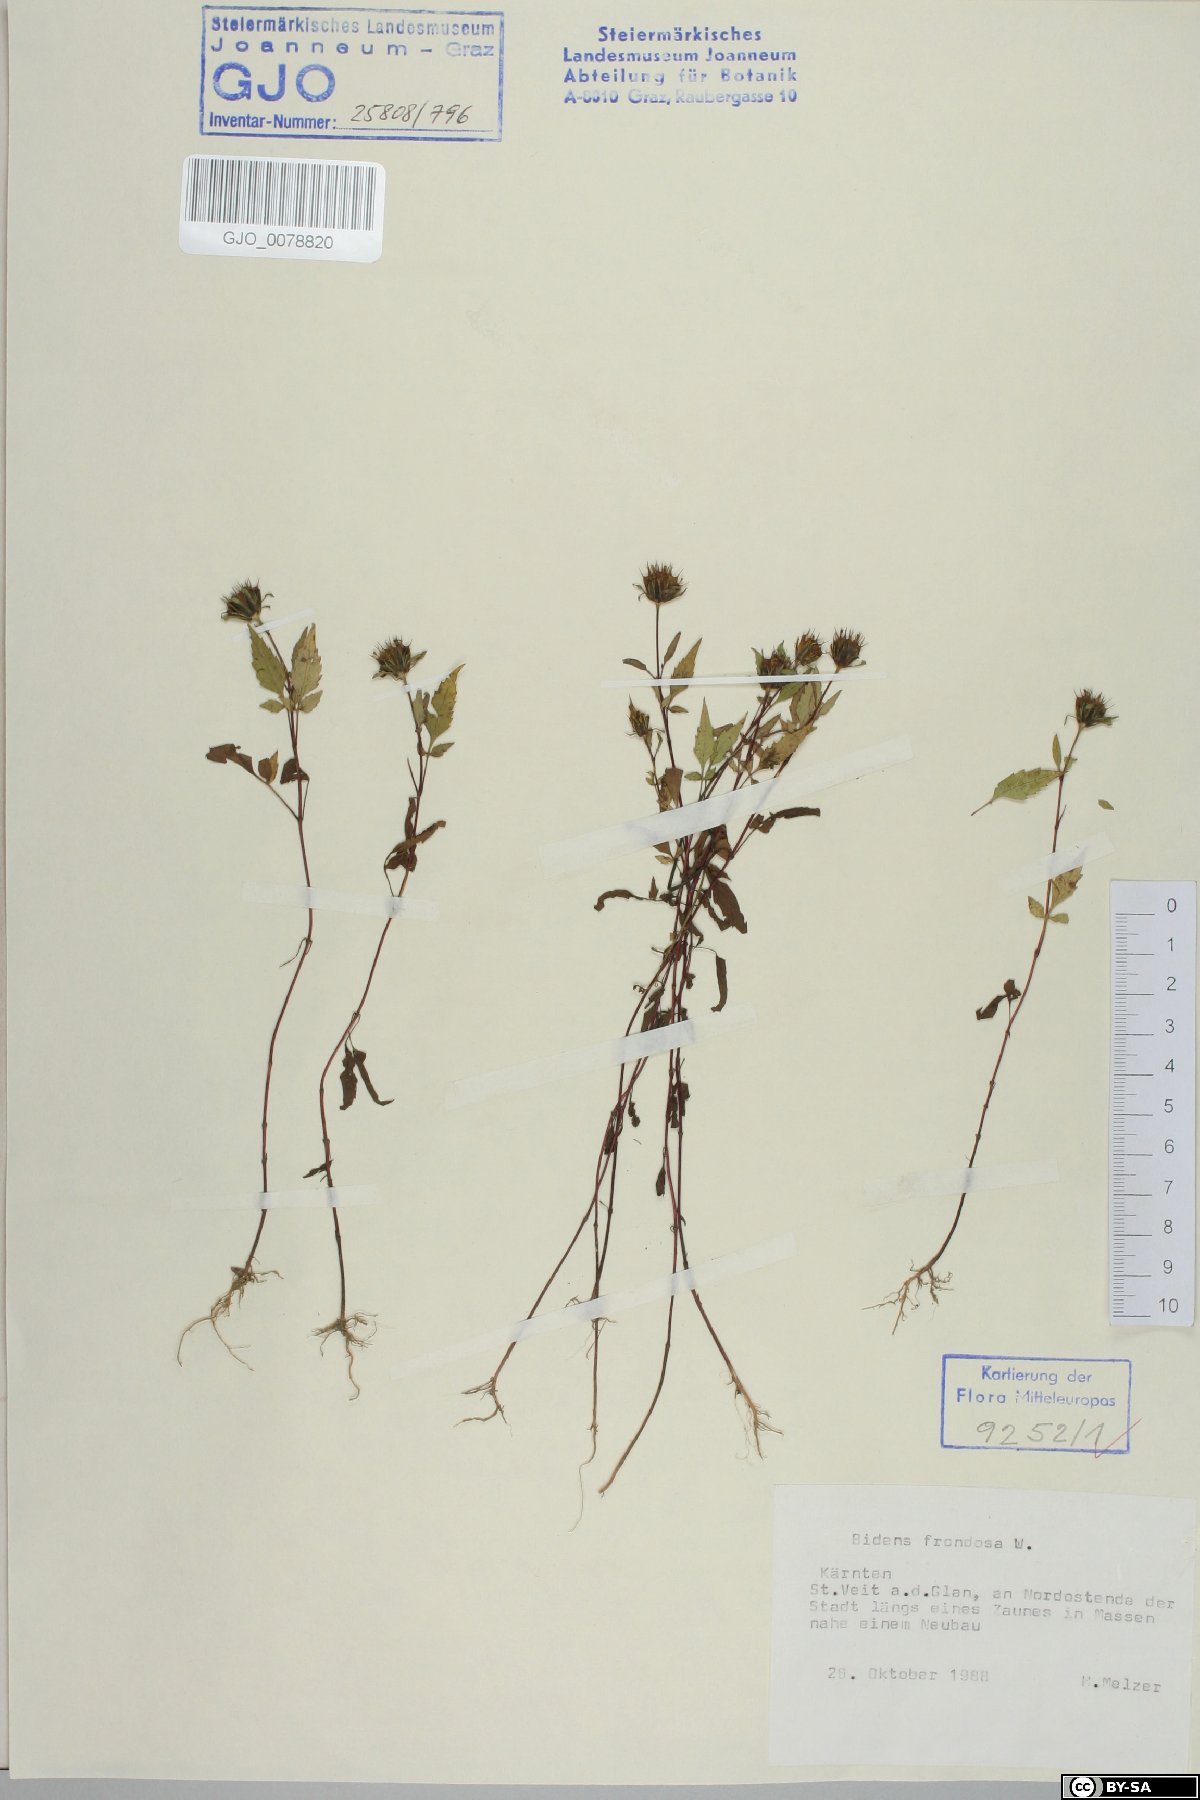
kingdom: Plantae
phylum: Tracheophyta
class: Magnoliopsida
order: Asterales
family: Asteraceae
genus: Bidens
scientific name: Bidens frondosa
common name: Beggarticks
